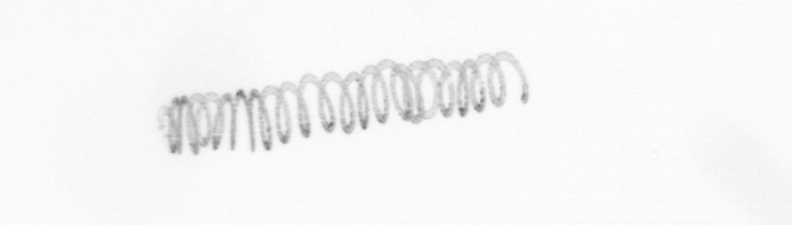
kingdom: Chromista
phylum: Ochrophyta
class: Bacillariophyceae
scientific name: Bacillariophyceae
